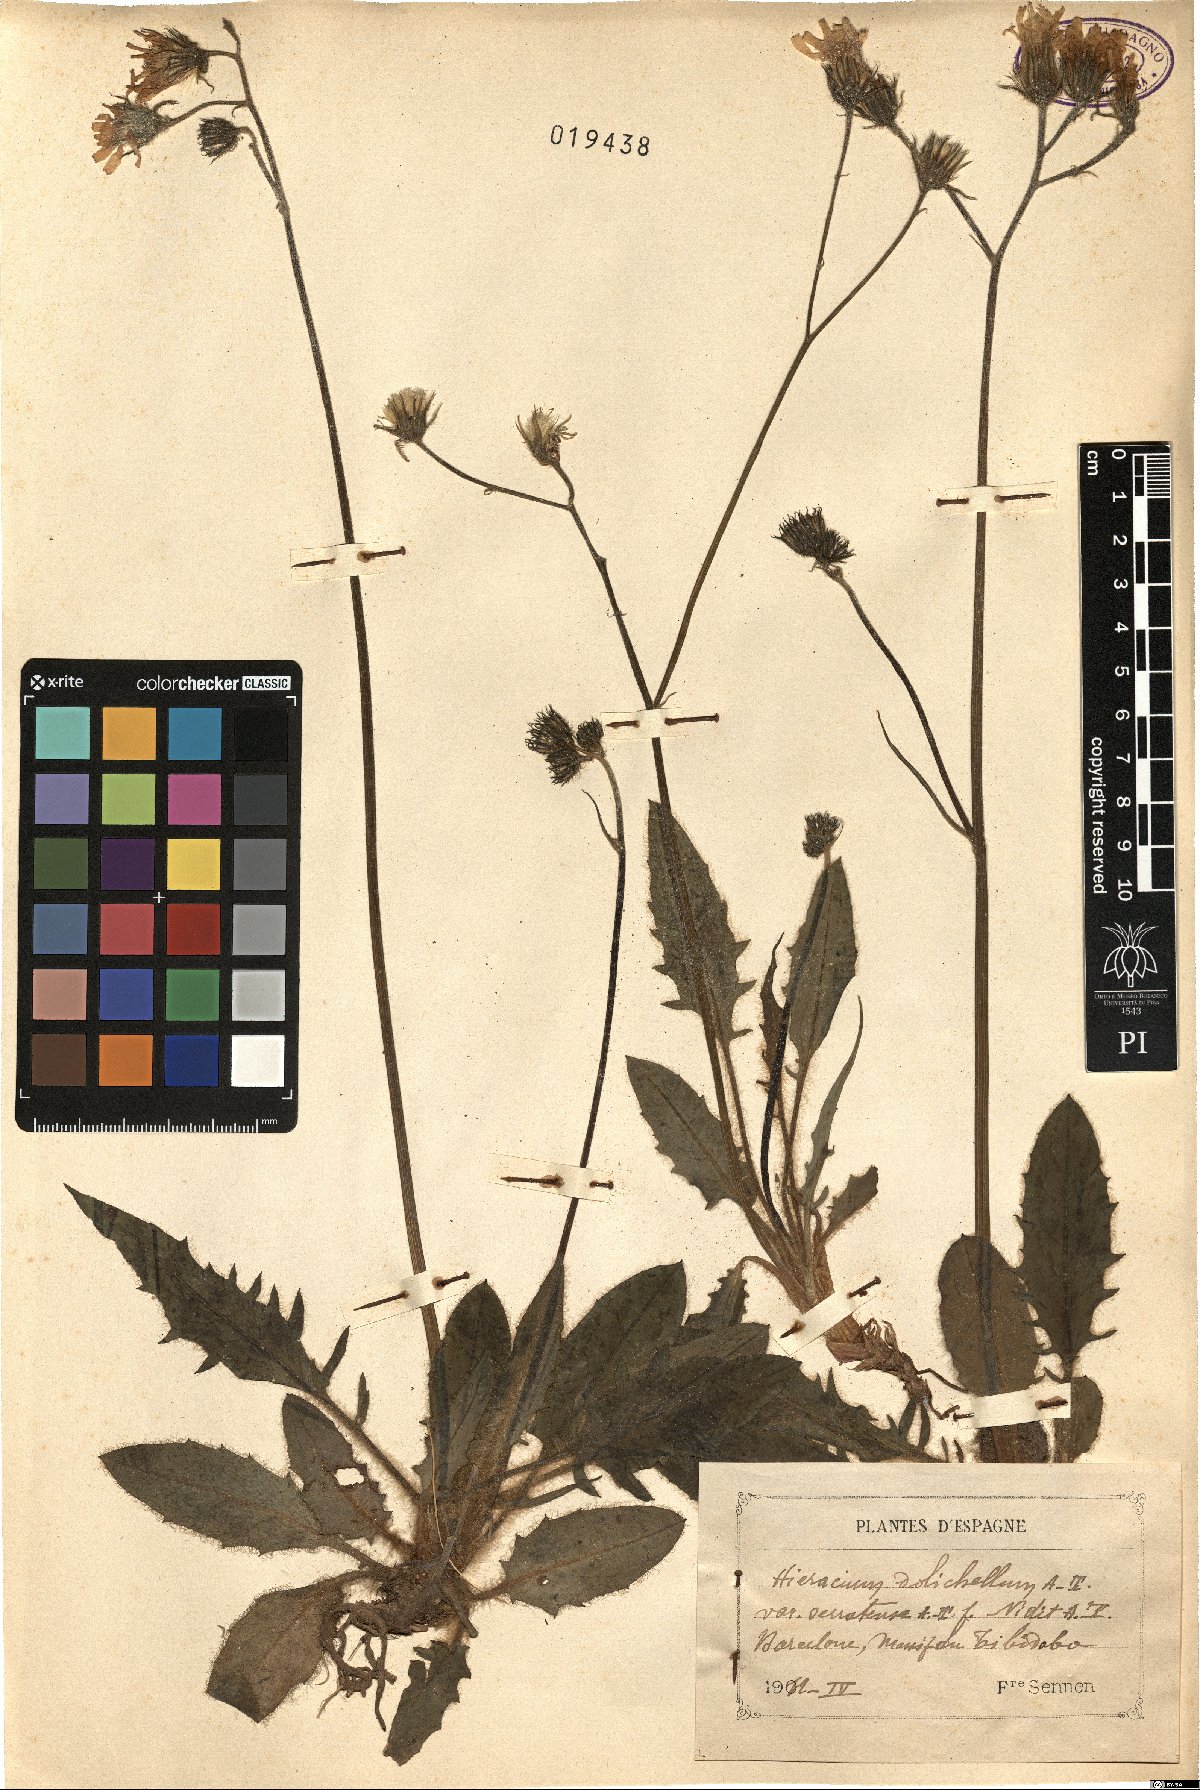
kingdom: Plantae
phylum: Tracheophyta
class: Magnoliopsida
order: Asterales
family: Asteraceae
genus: Hieracium
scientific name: Hieracium hypochoeroides
